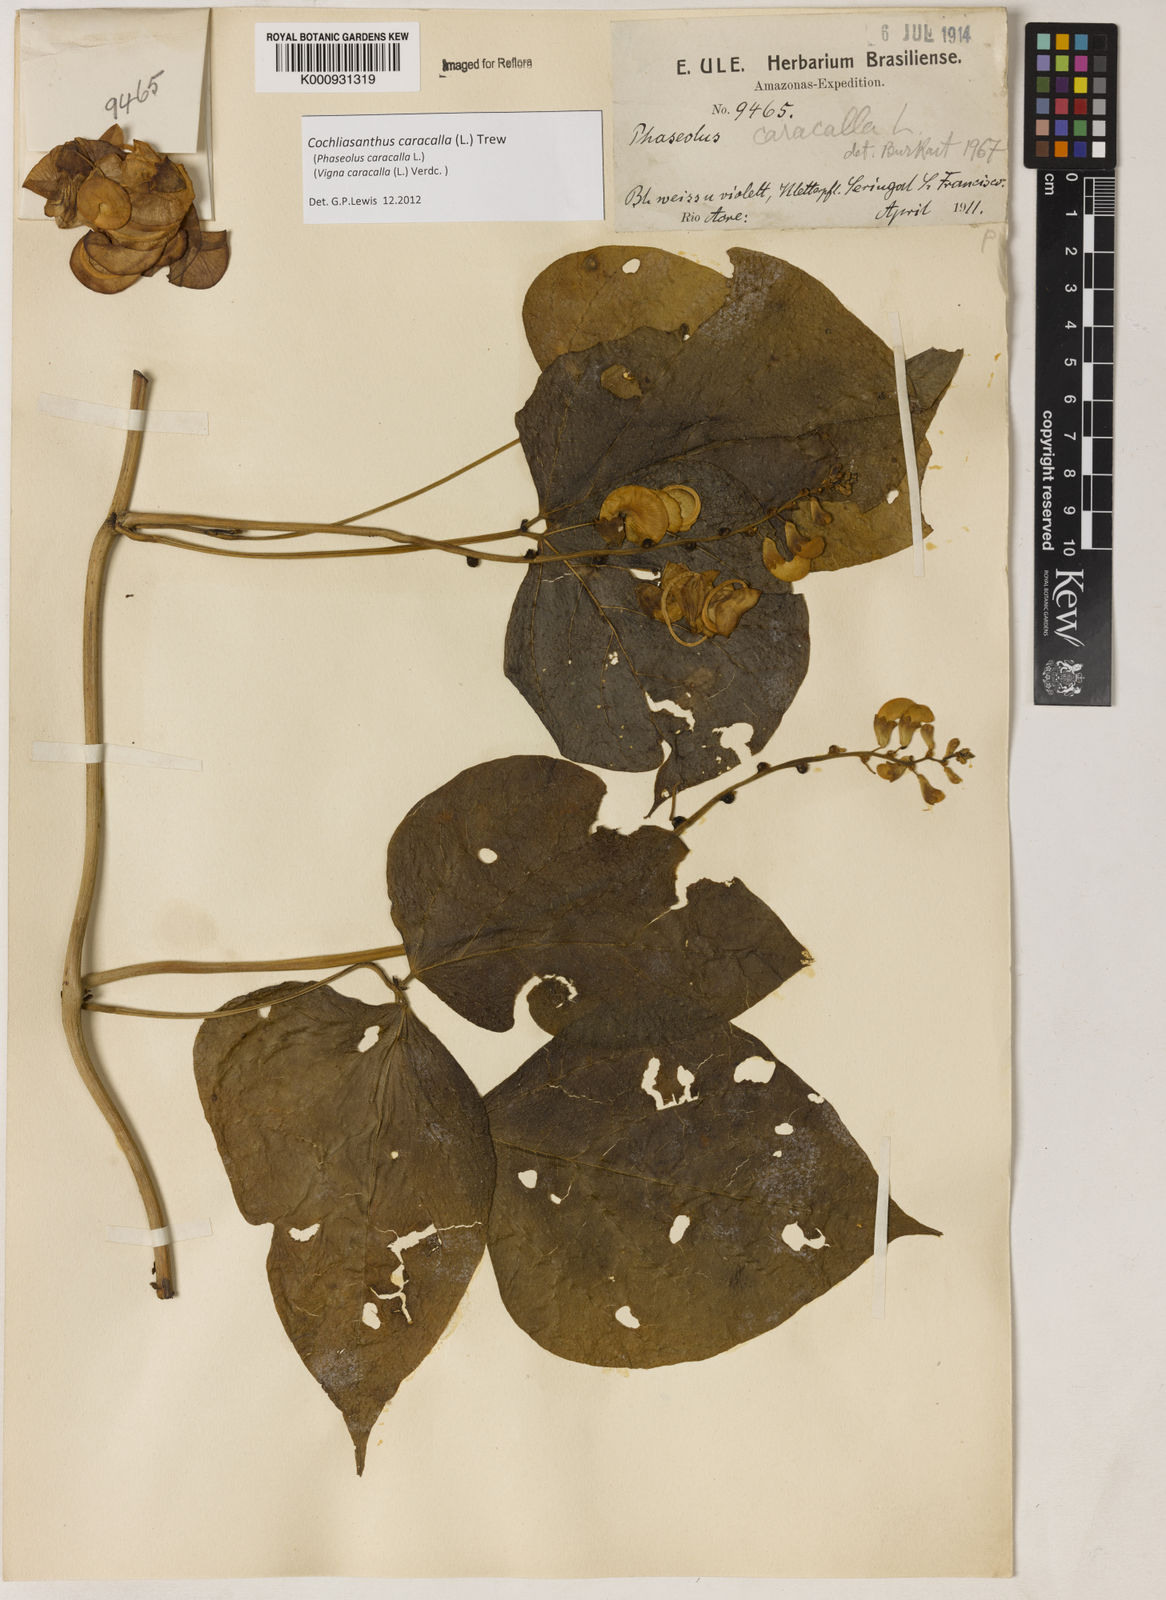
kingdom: Plantae
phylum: Tracheophyta
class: Magnoliopsida
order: Fabales
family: Fabaceae
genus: Cochliasanthus
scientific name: Cochliasanthus caracalla
